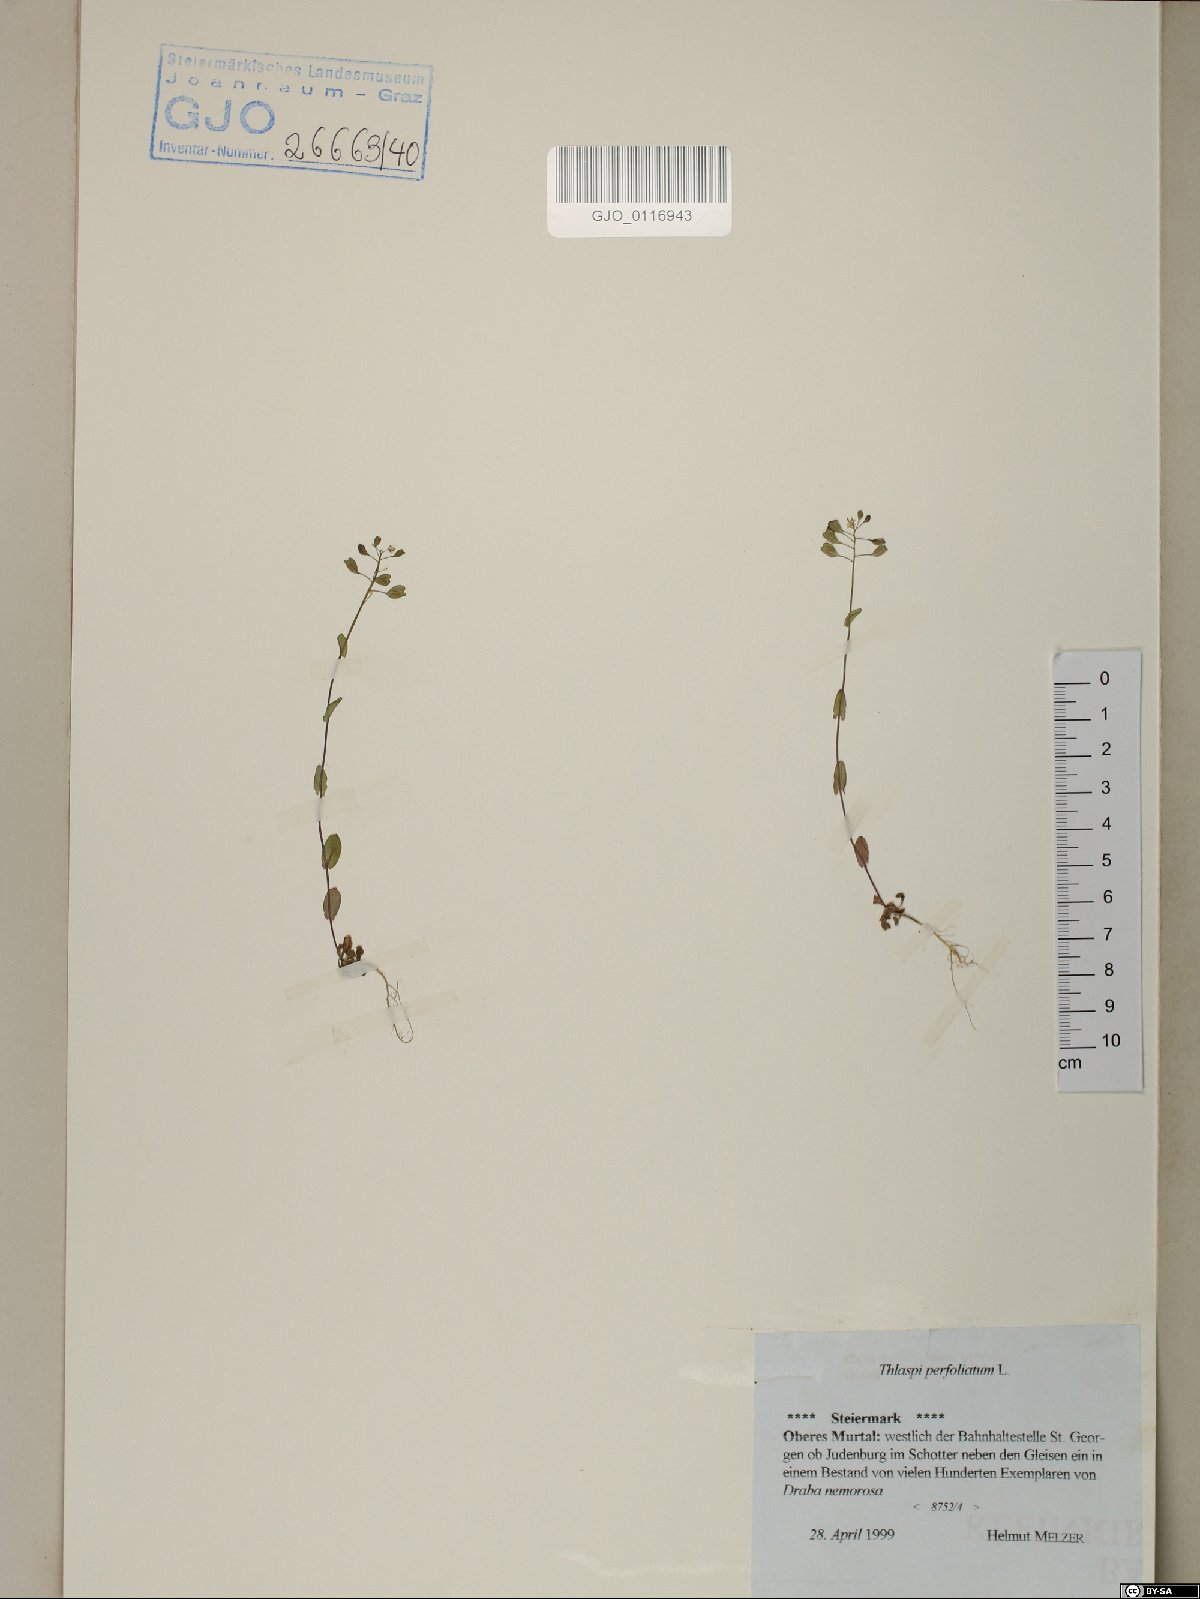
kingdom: Plantae
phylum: Tracheophyta
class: Magnoliopsida
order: Brassicales
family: Brassicaceae
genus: Noccaea
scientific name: Noccaea perfoliata
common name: Perfoliate pennycress
